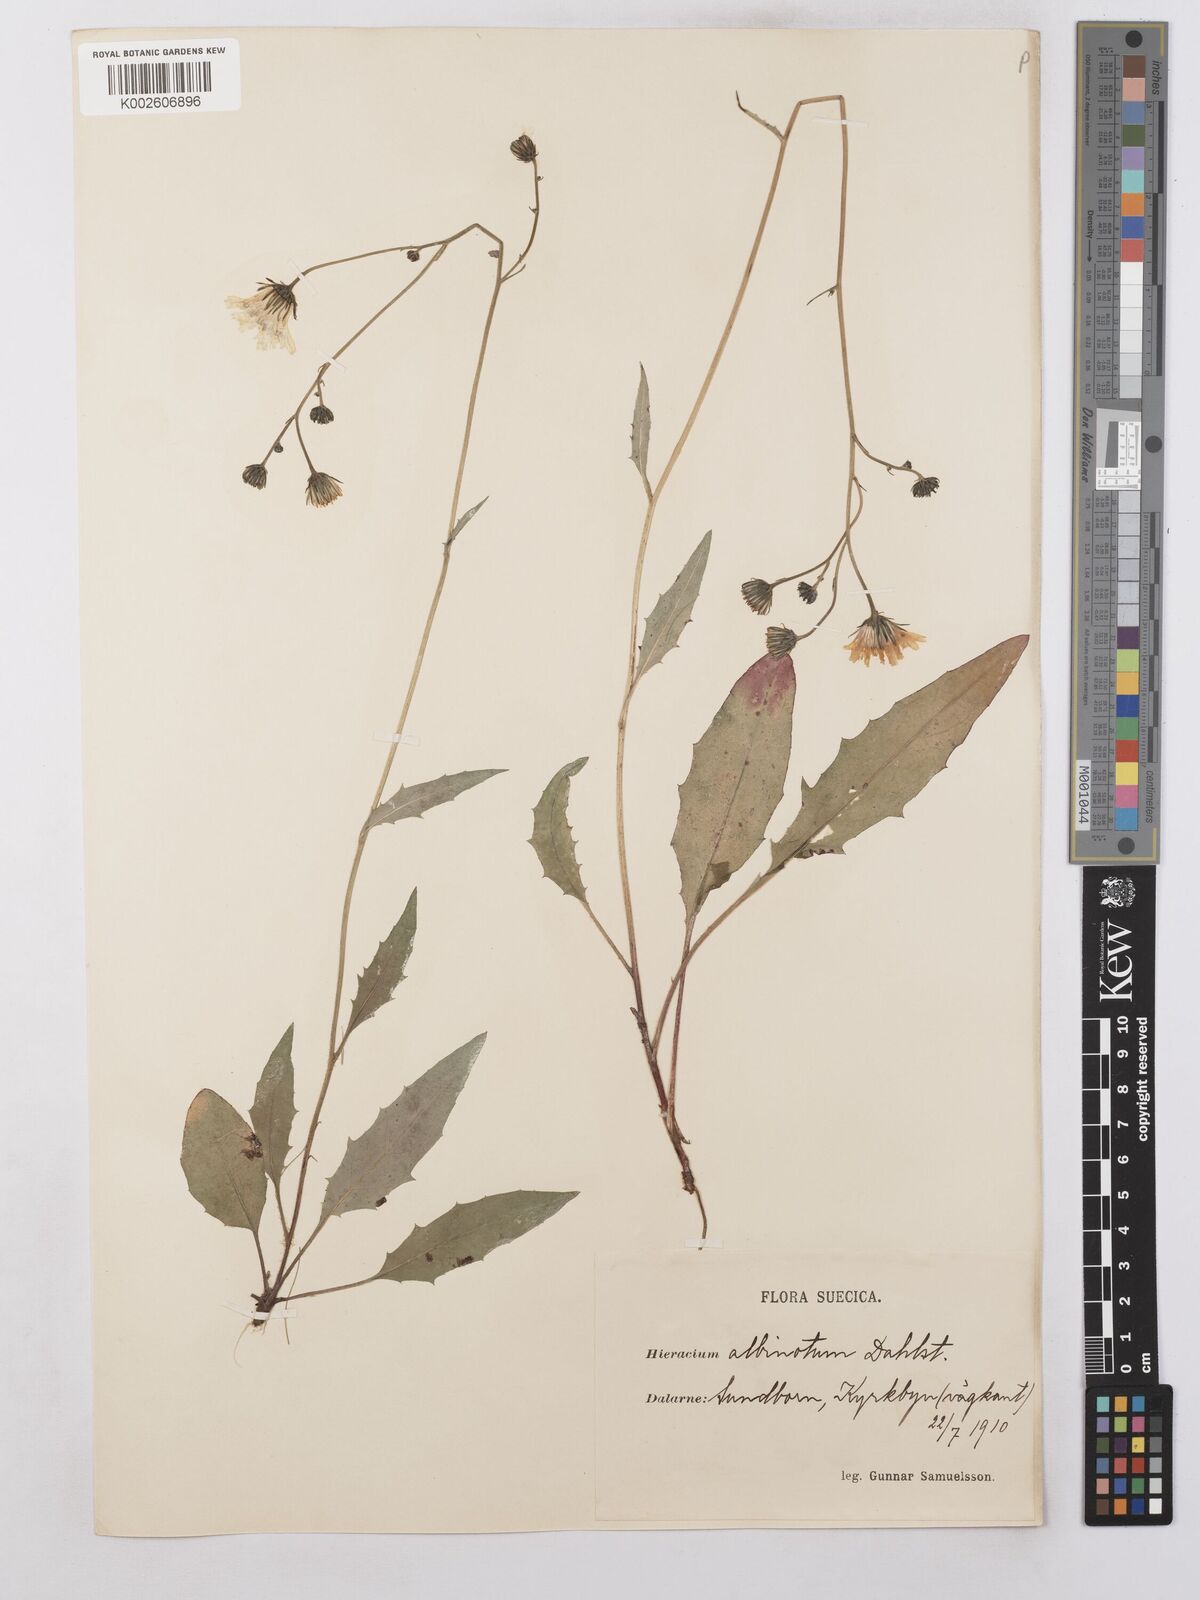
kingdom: Plantae
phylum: Tracheophyta
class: Magnoliopsida
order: Asterales
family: Asteraceae
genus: Hieracium
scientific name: Hieracium levicaule
